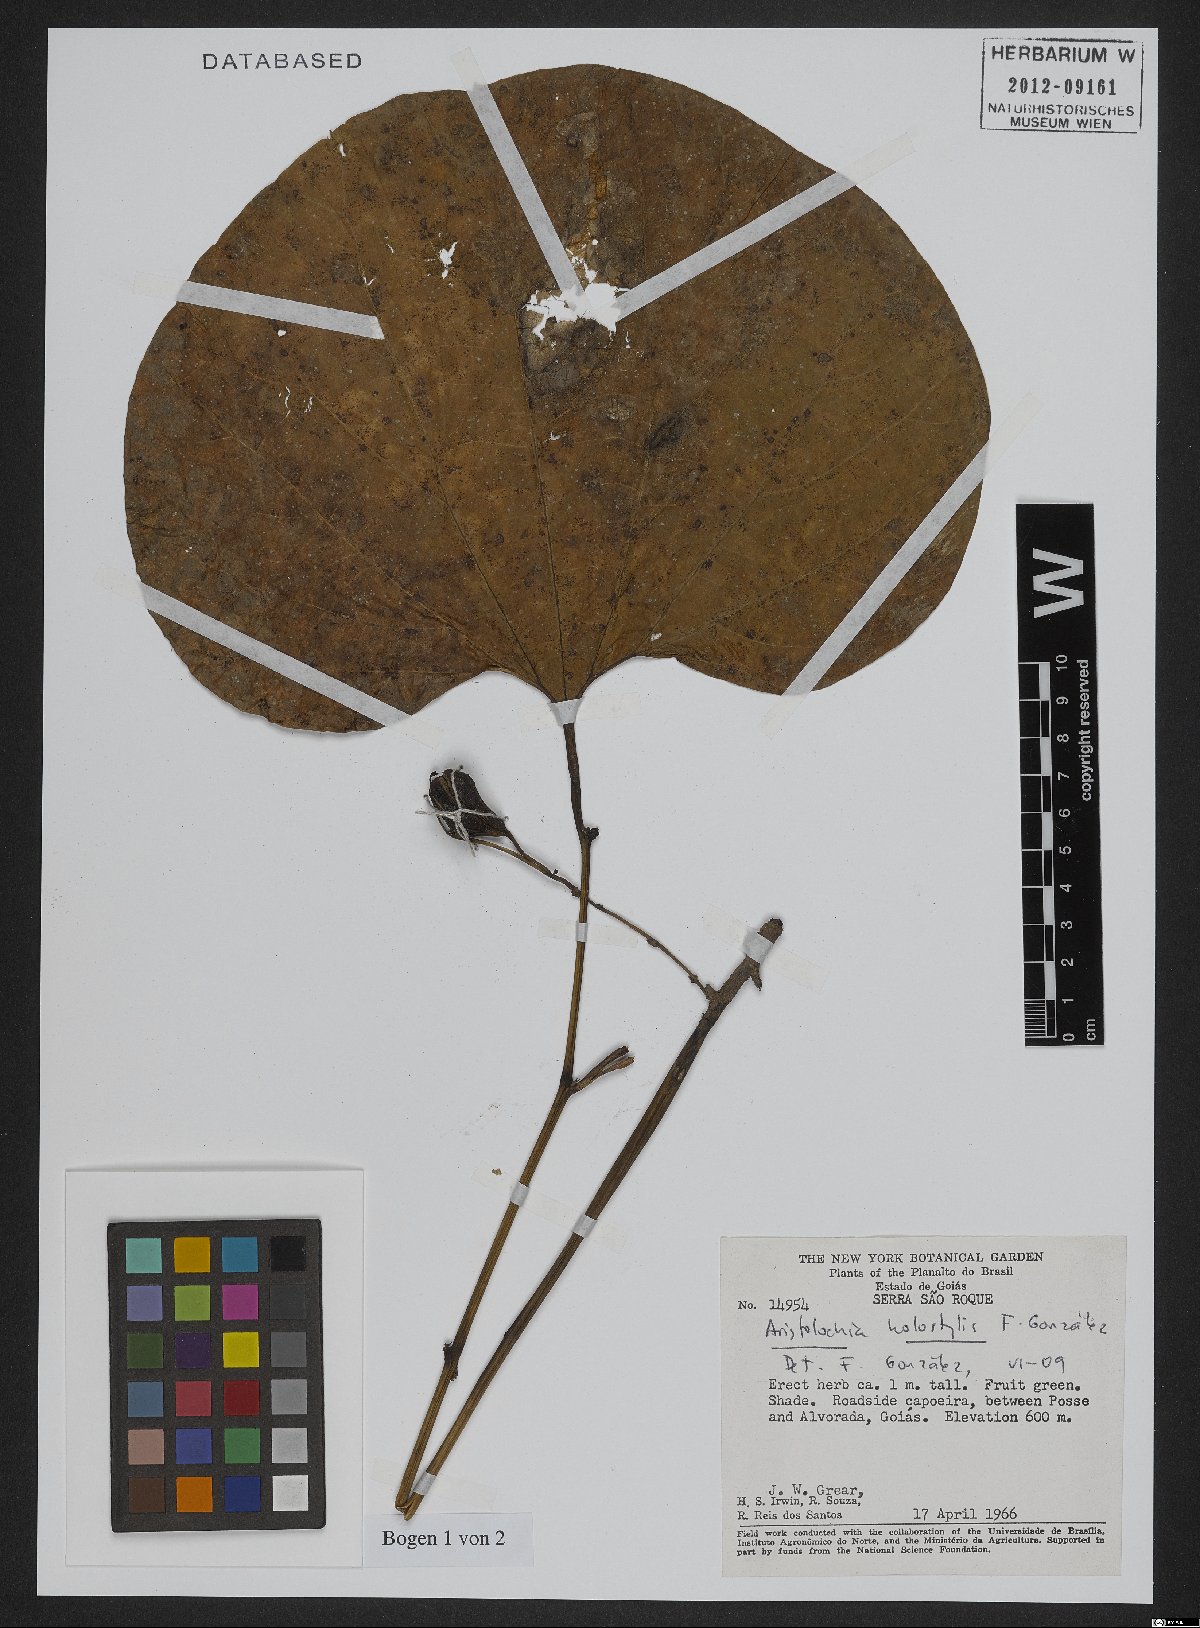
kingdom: Plantae
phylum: Tracheophyta
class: Magnoliopsida
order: Piperales
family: Aristolochiaceae
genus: Aristolochia
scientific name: Aristolochia holostylis
